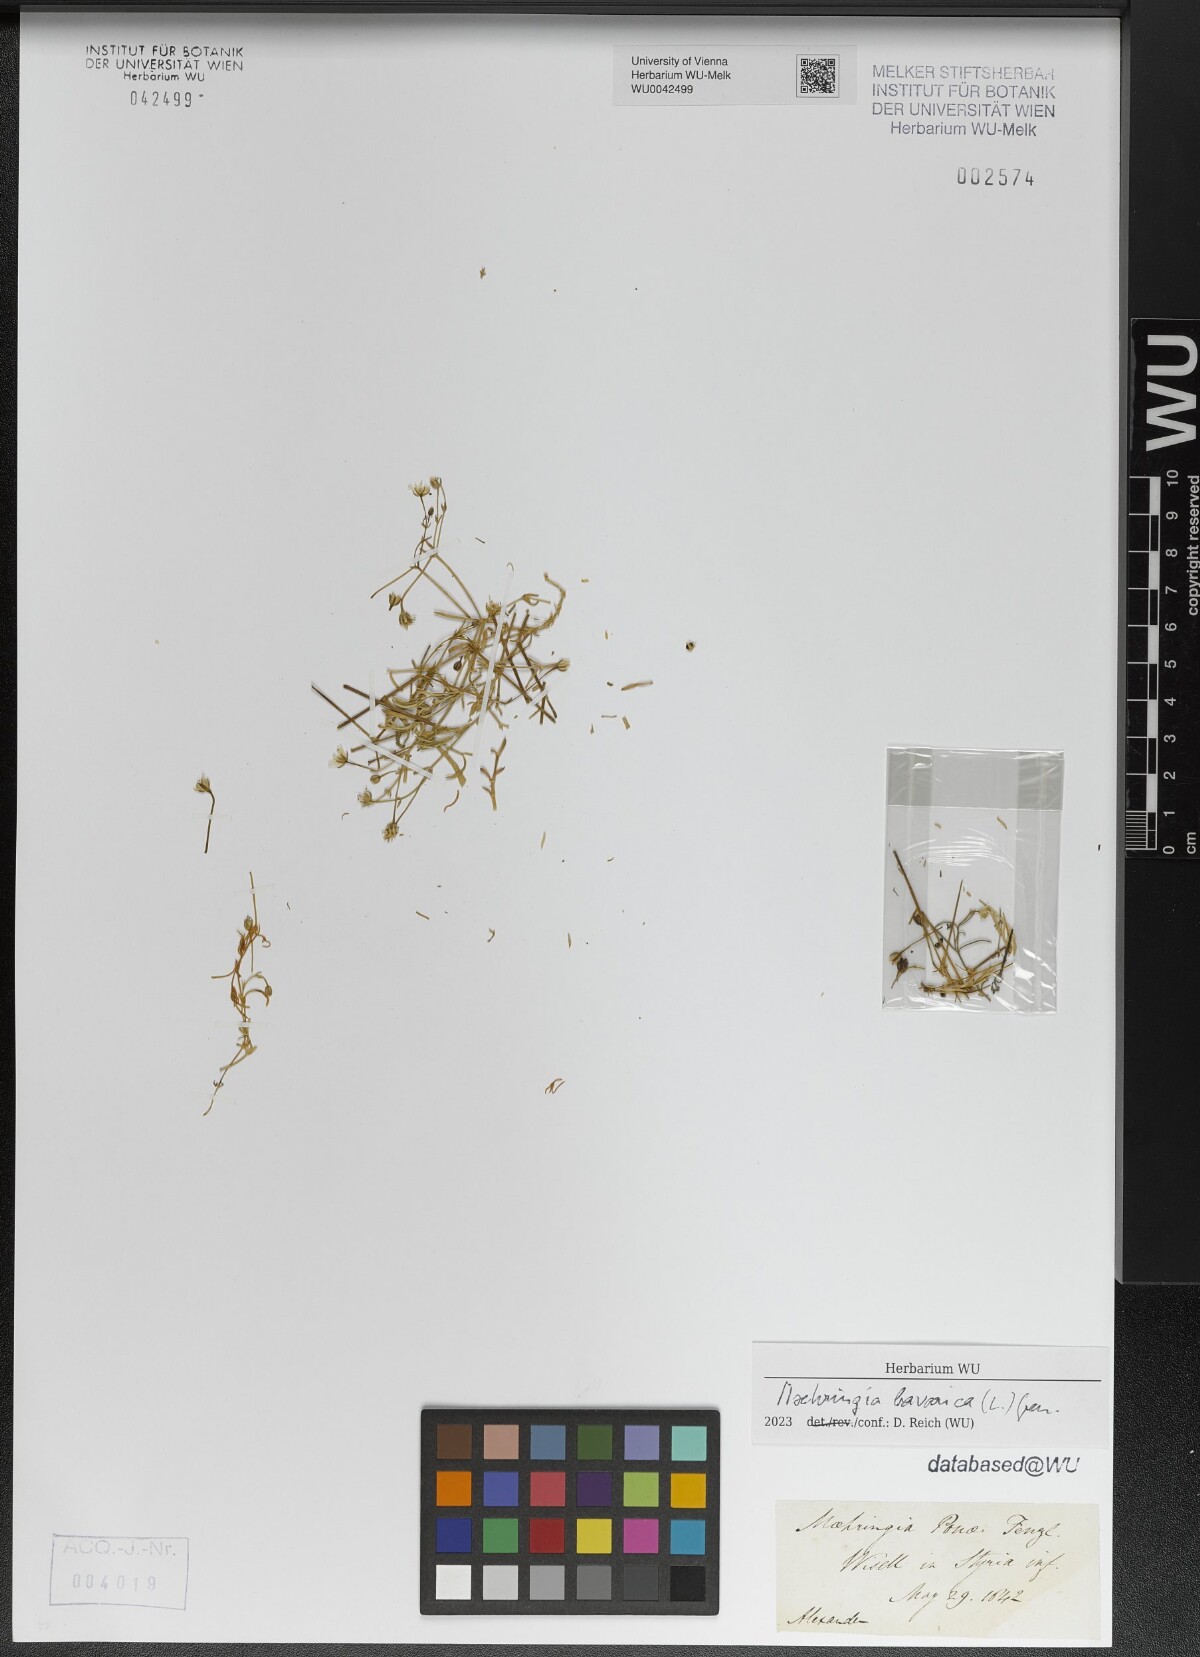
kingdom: Plantae
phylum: Tracheophyta
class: Magnoliopsida
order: Caryophyllales
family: Caryophyllaceae
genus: Moehringia
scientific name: Moehringia bavarica
